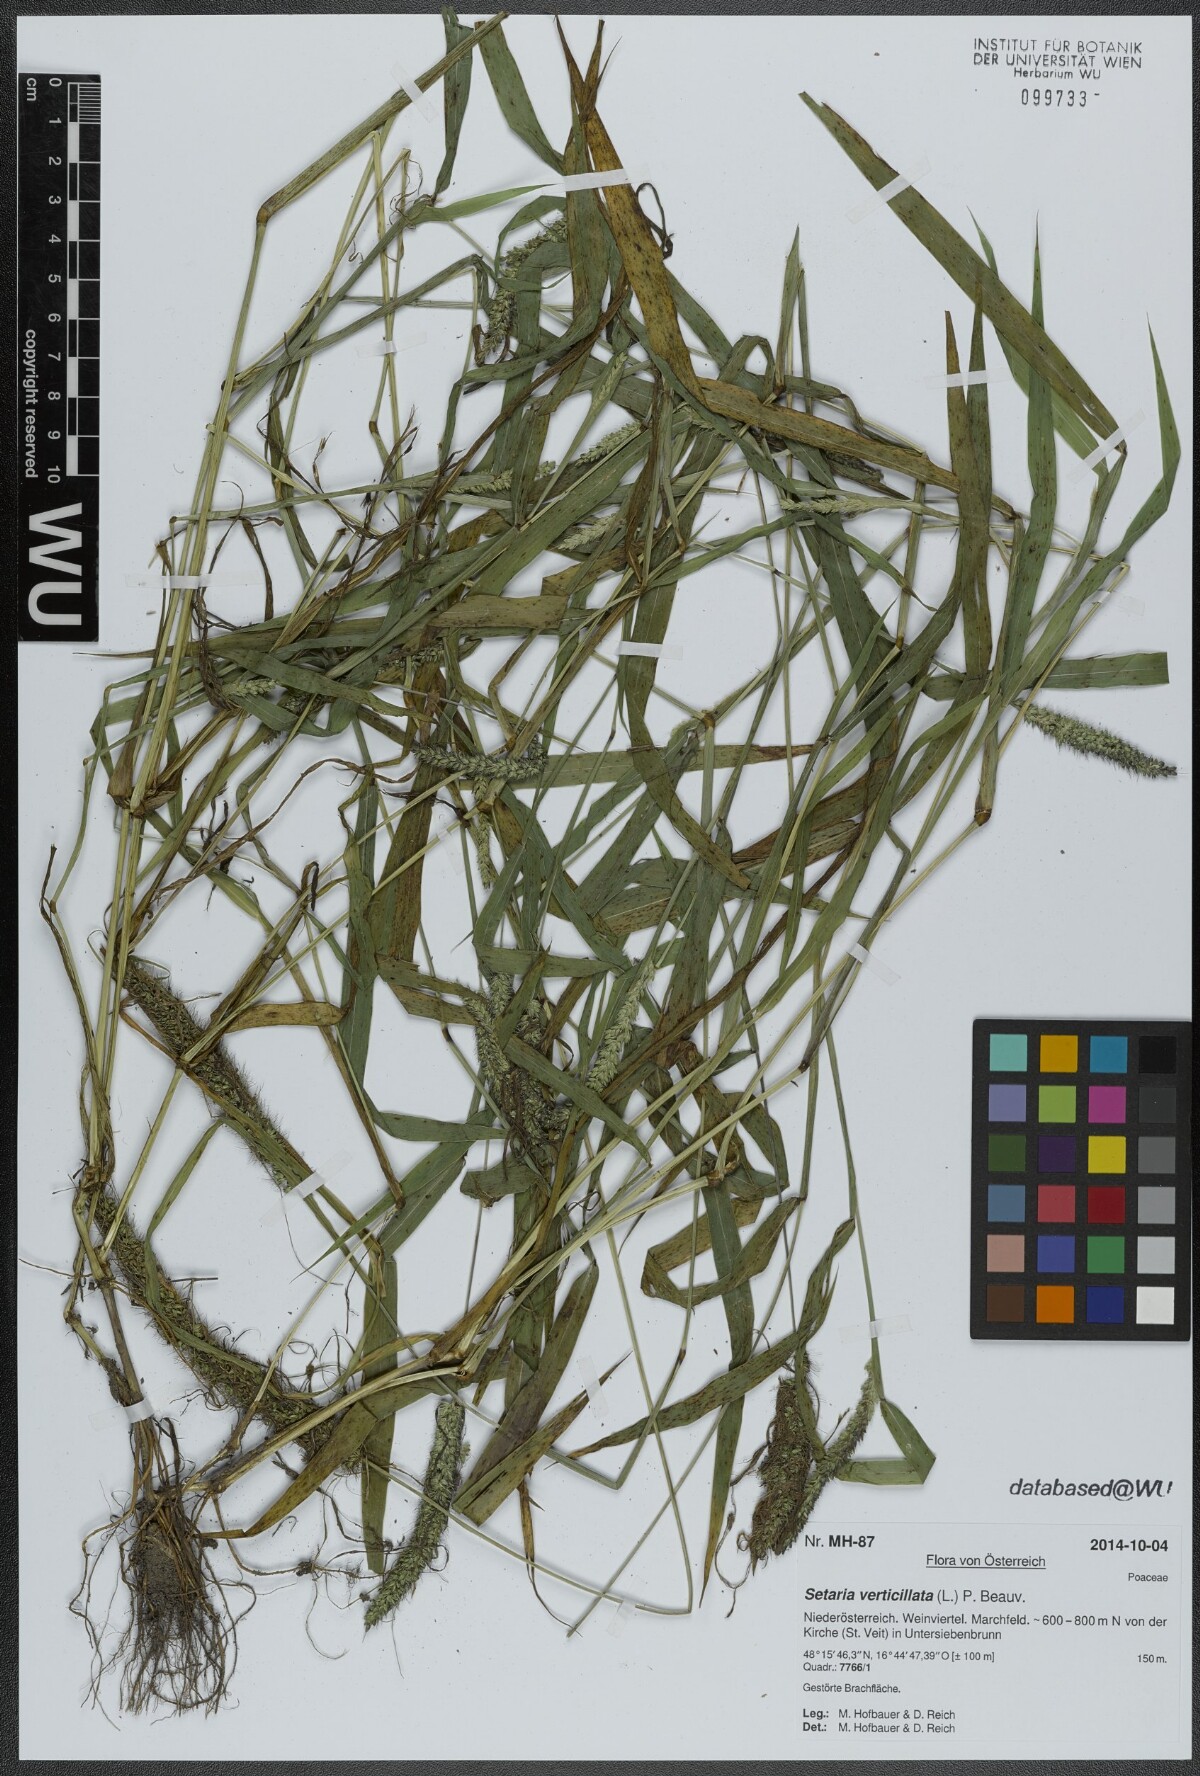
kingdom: Plantae
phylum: Tracheophyta
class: Liliopsida
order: Poales
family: Poaceae
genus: Setaria
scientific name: Setaria verticillata
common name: Hooked bristlegrass
